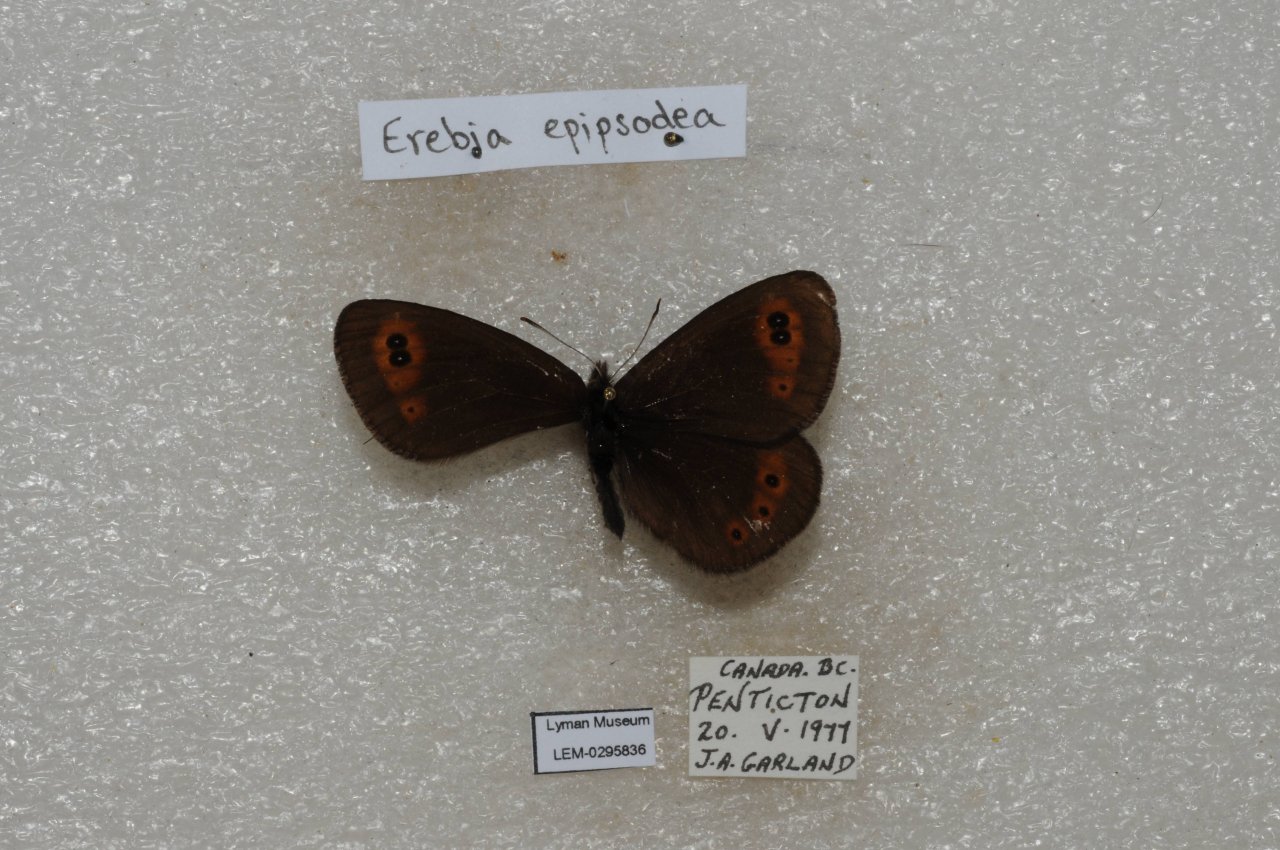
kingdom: Animalia
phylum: Arthropoda
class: Insecta
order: Lepidoptera
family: Nymphalidae
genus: Erebia
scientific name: Erebia epipsodea
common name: Common Alpine
